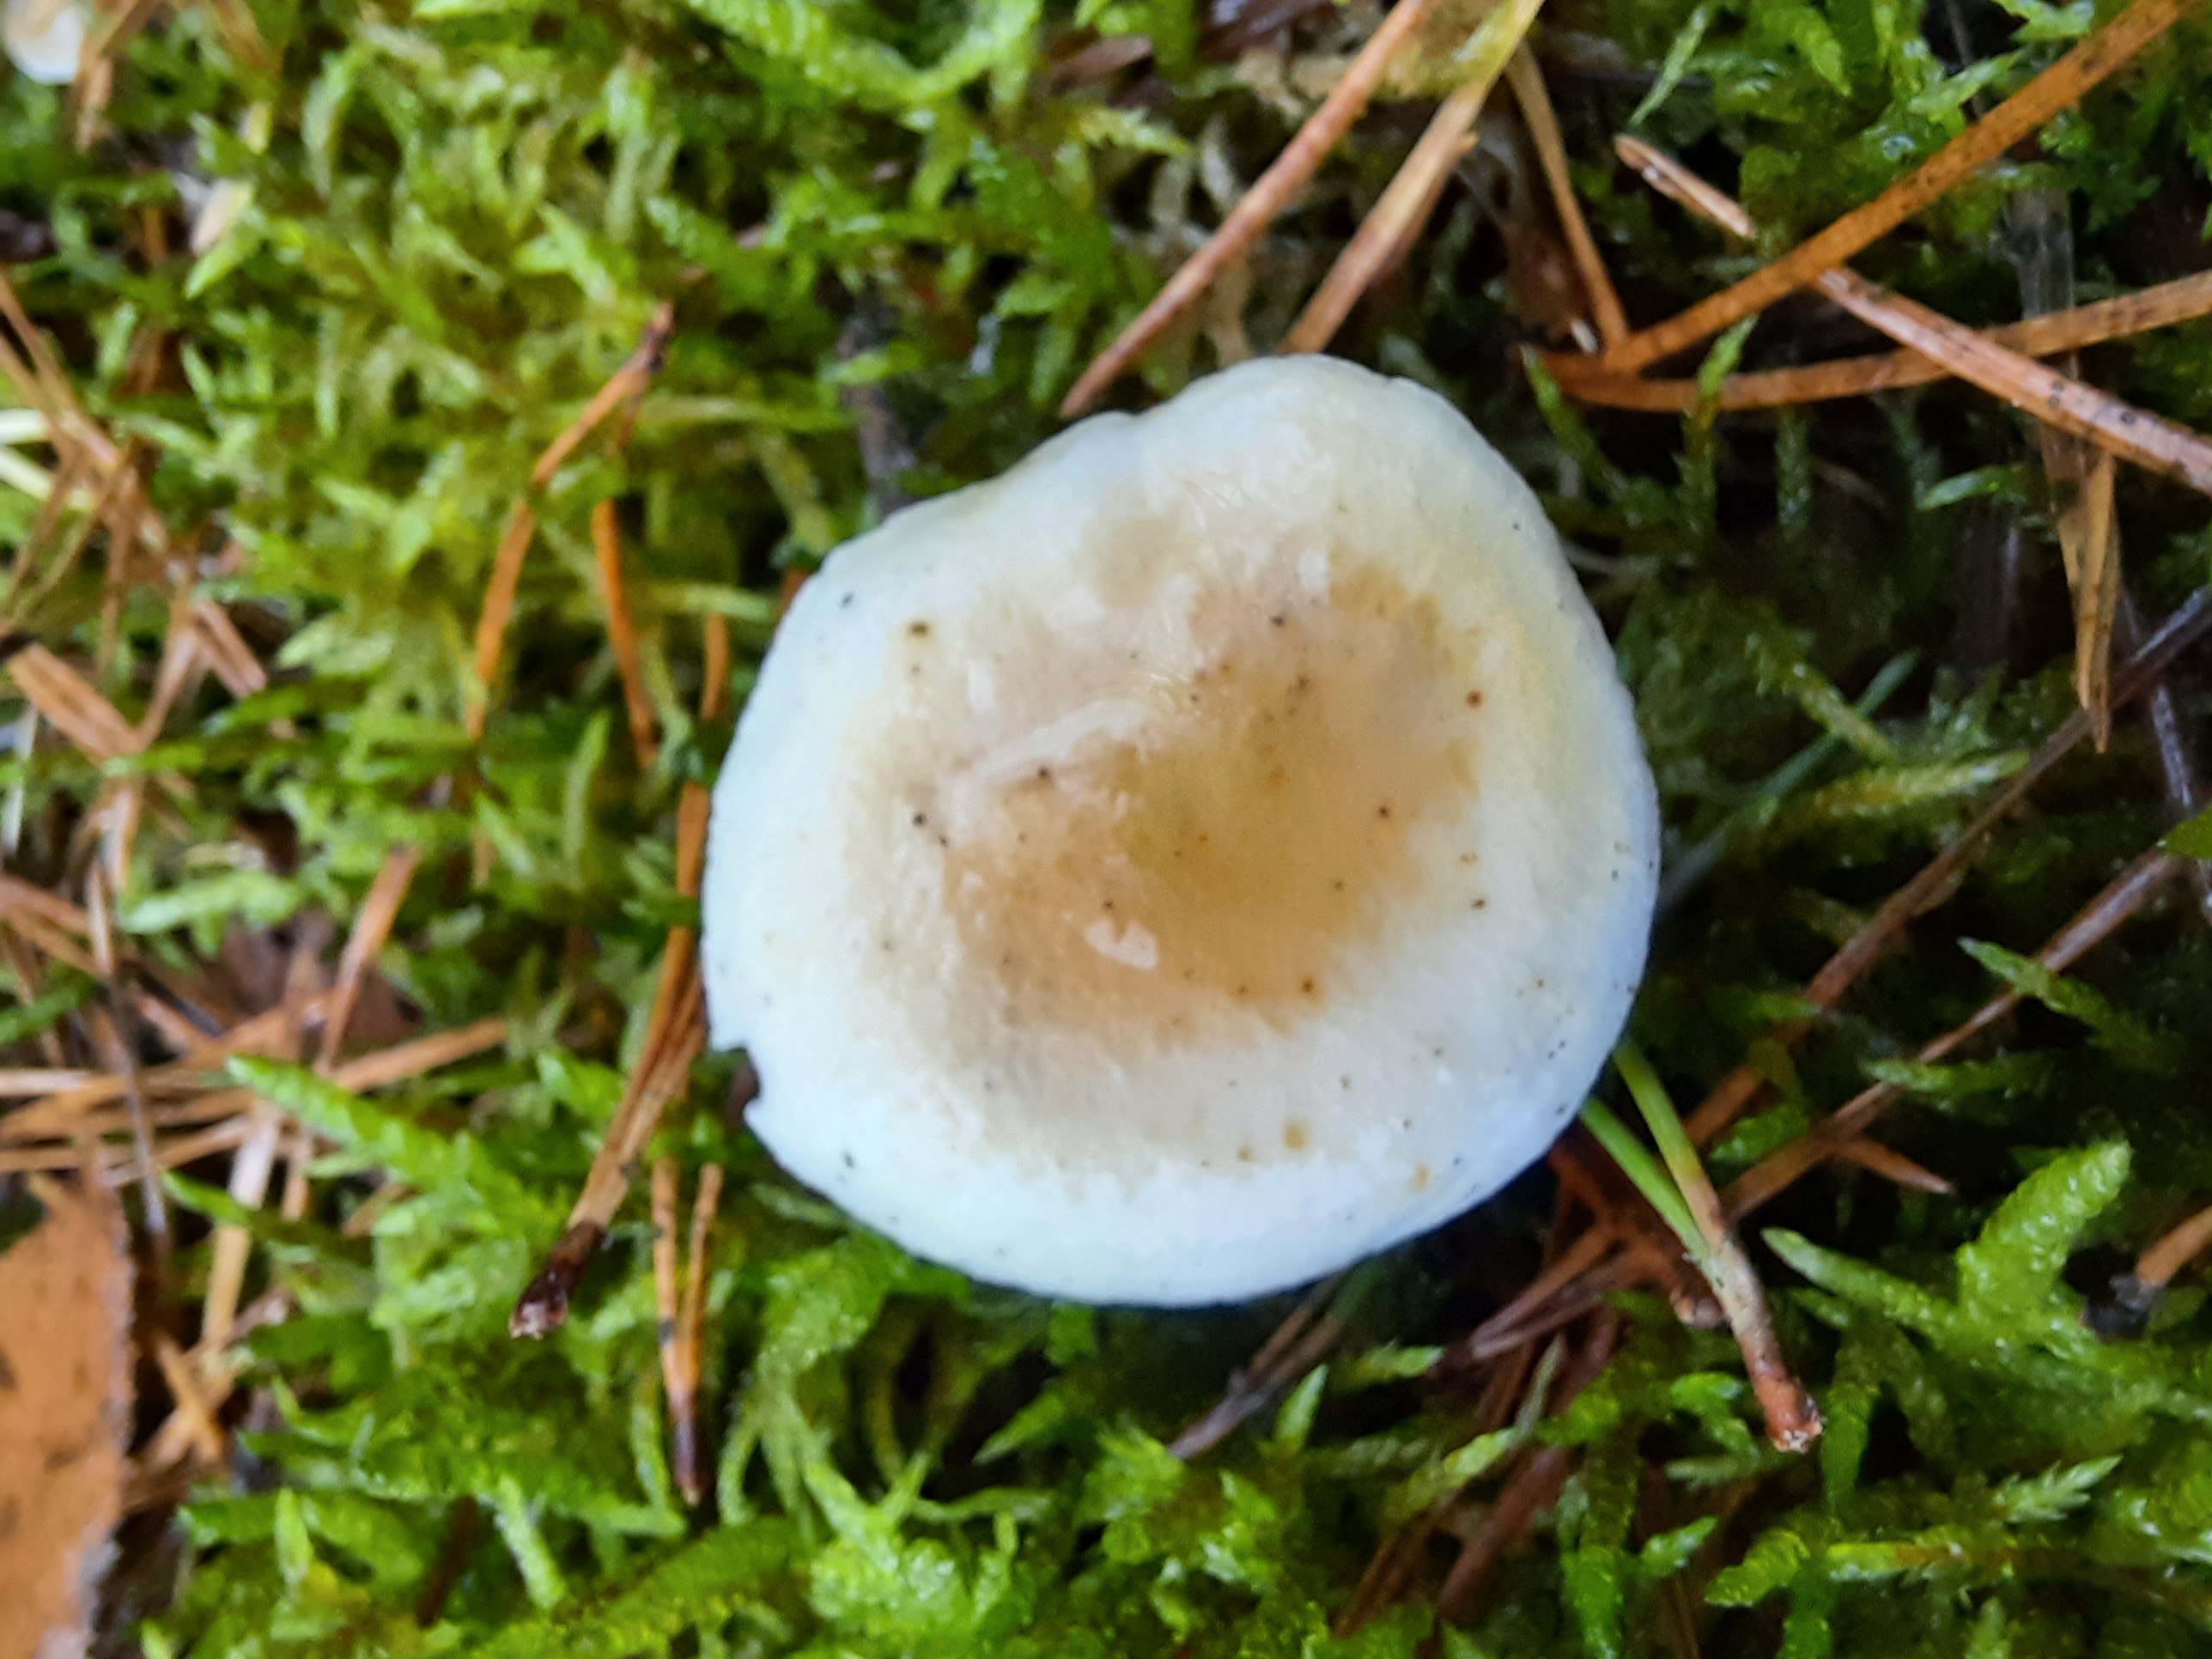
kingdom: Fungi
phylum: Basidiomycota
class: Agaricomycetes
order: Boletales
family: Hygrophoropsidaceae
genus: Hygrophoropsis
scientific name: Hygrophoropsis pallida
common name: bleg orangekantarel
